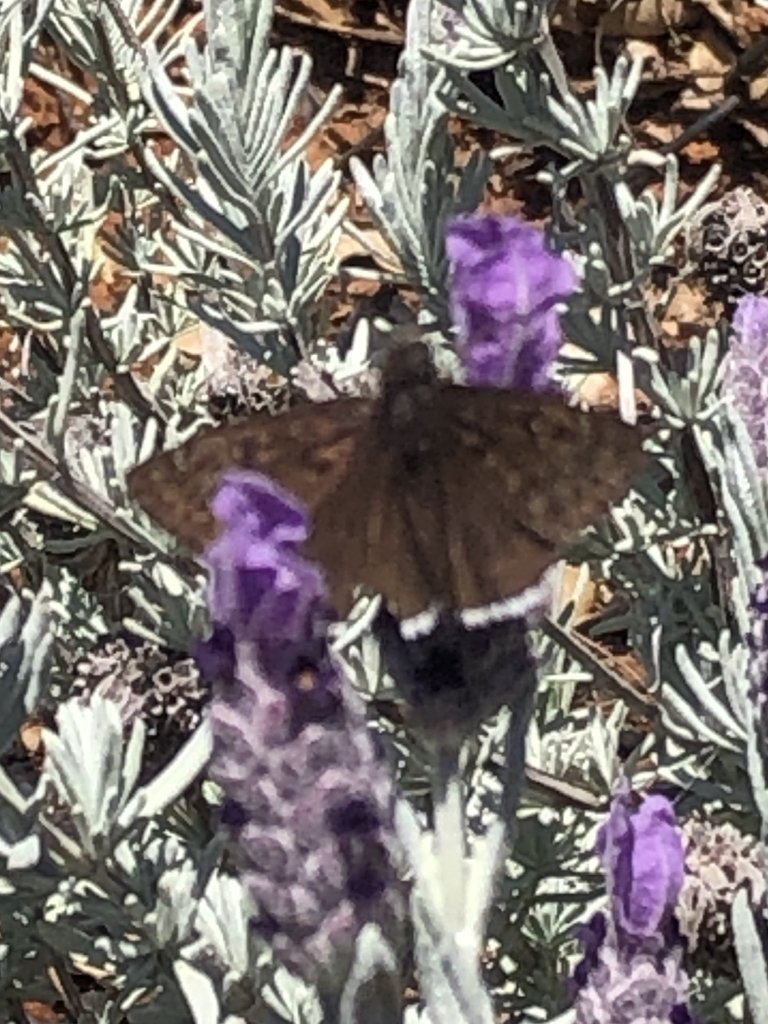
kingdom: Animalia
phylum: Arthropoda
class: Insecta
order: Lepidoptera
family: Hesperiidae
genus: Erynnis
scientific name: Erynnis tristis
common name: Mournful Duskywing
